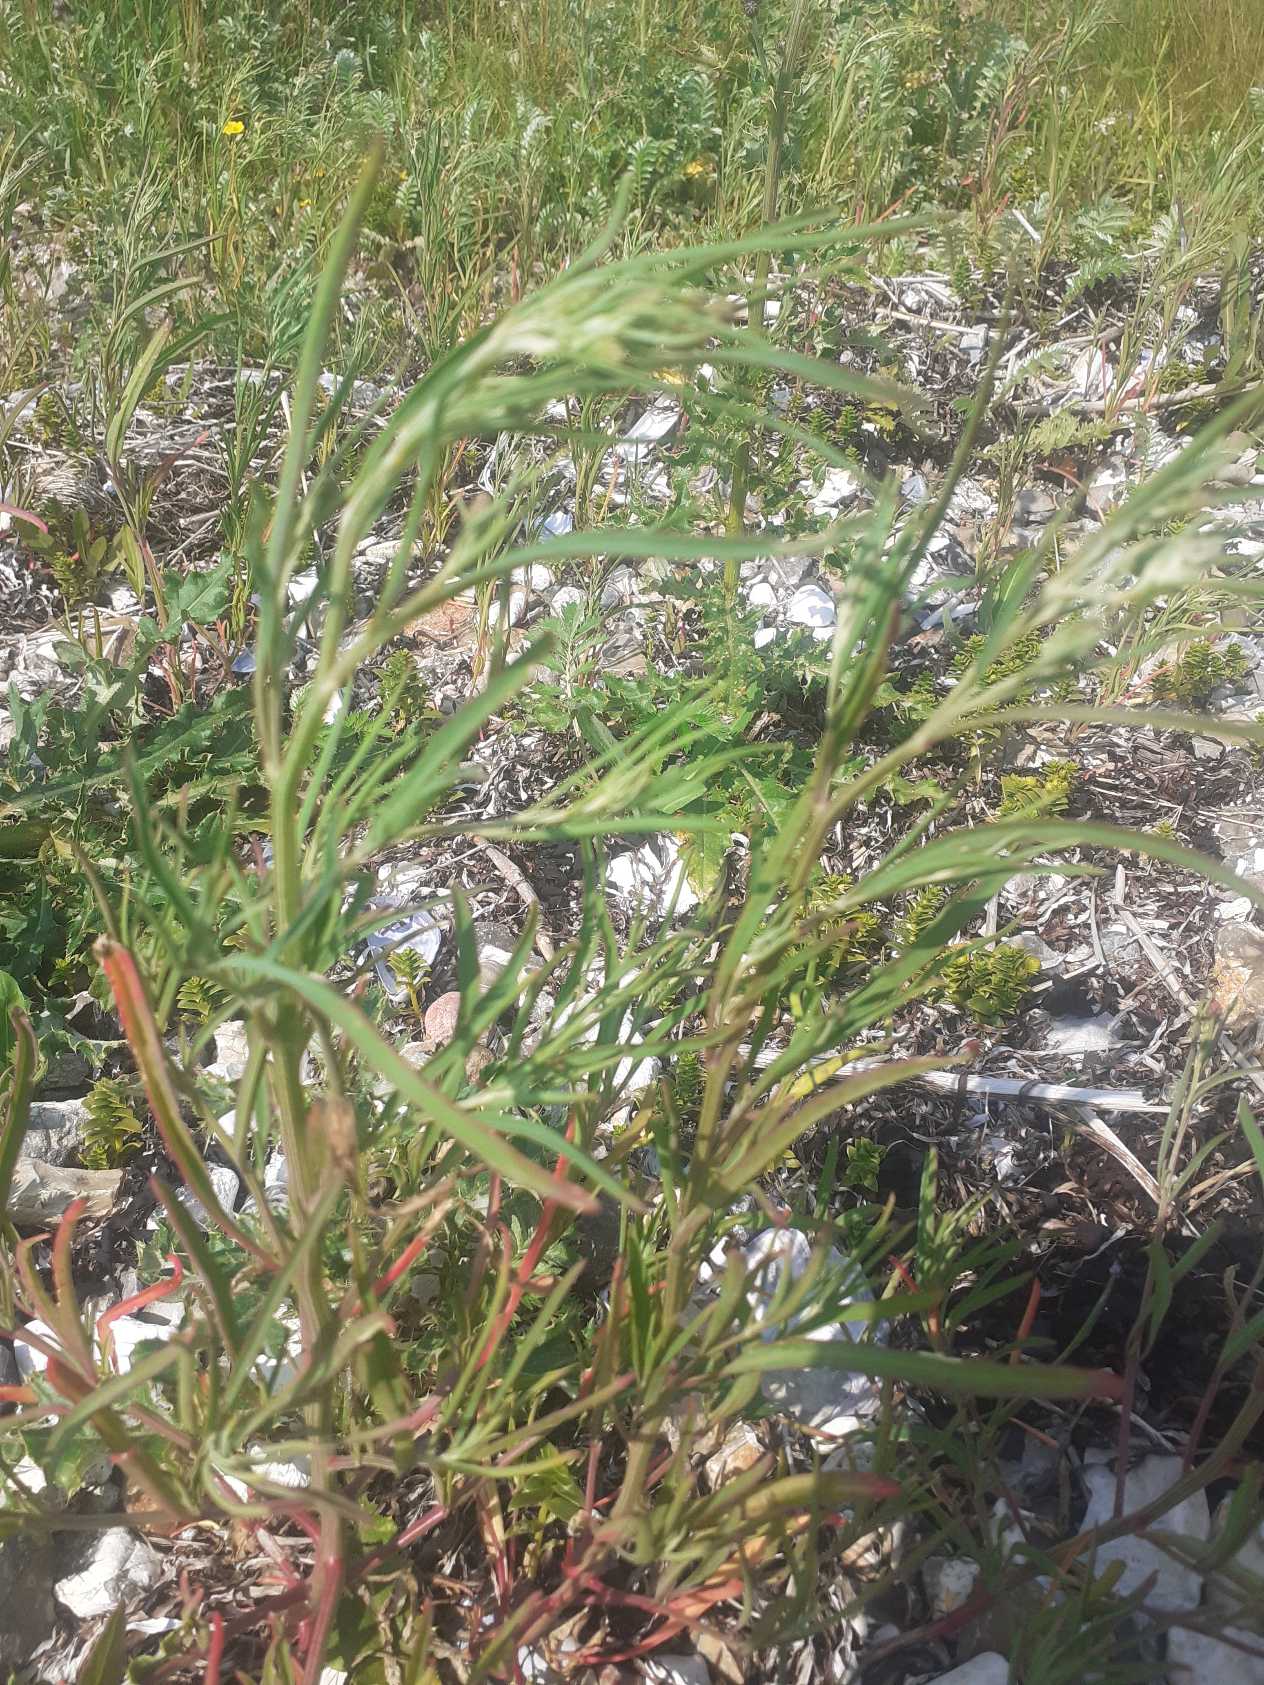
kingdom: Plantae
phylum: Tracheophyta
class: Magnoliopsida
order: Caryophyllales
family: Amaranthaceae
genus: Atriplex
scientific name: Atriplex littoralis
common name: Strand-mælde
